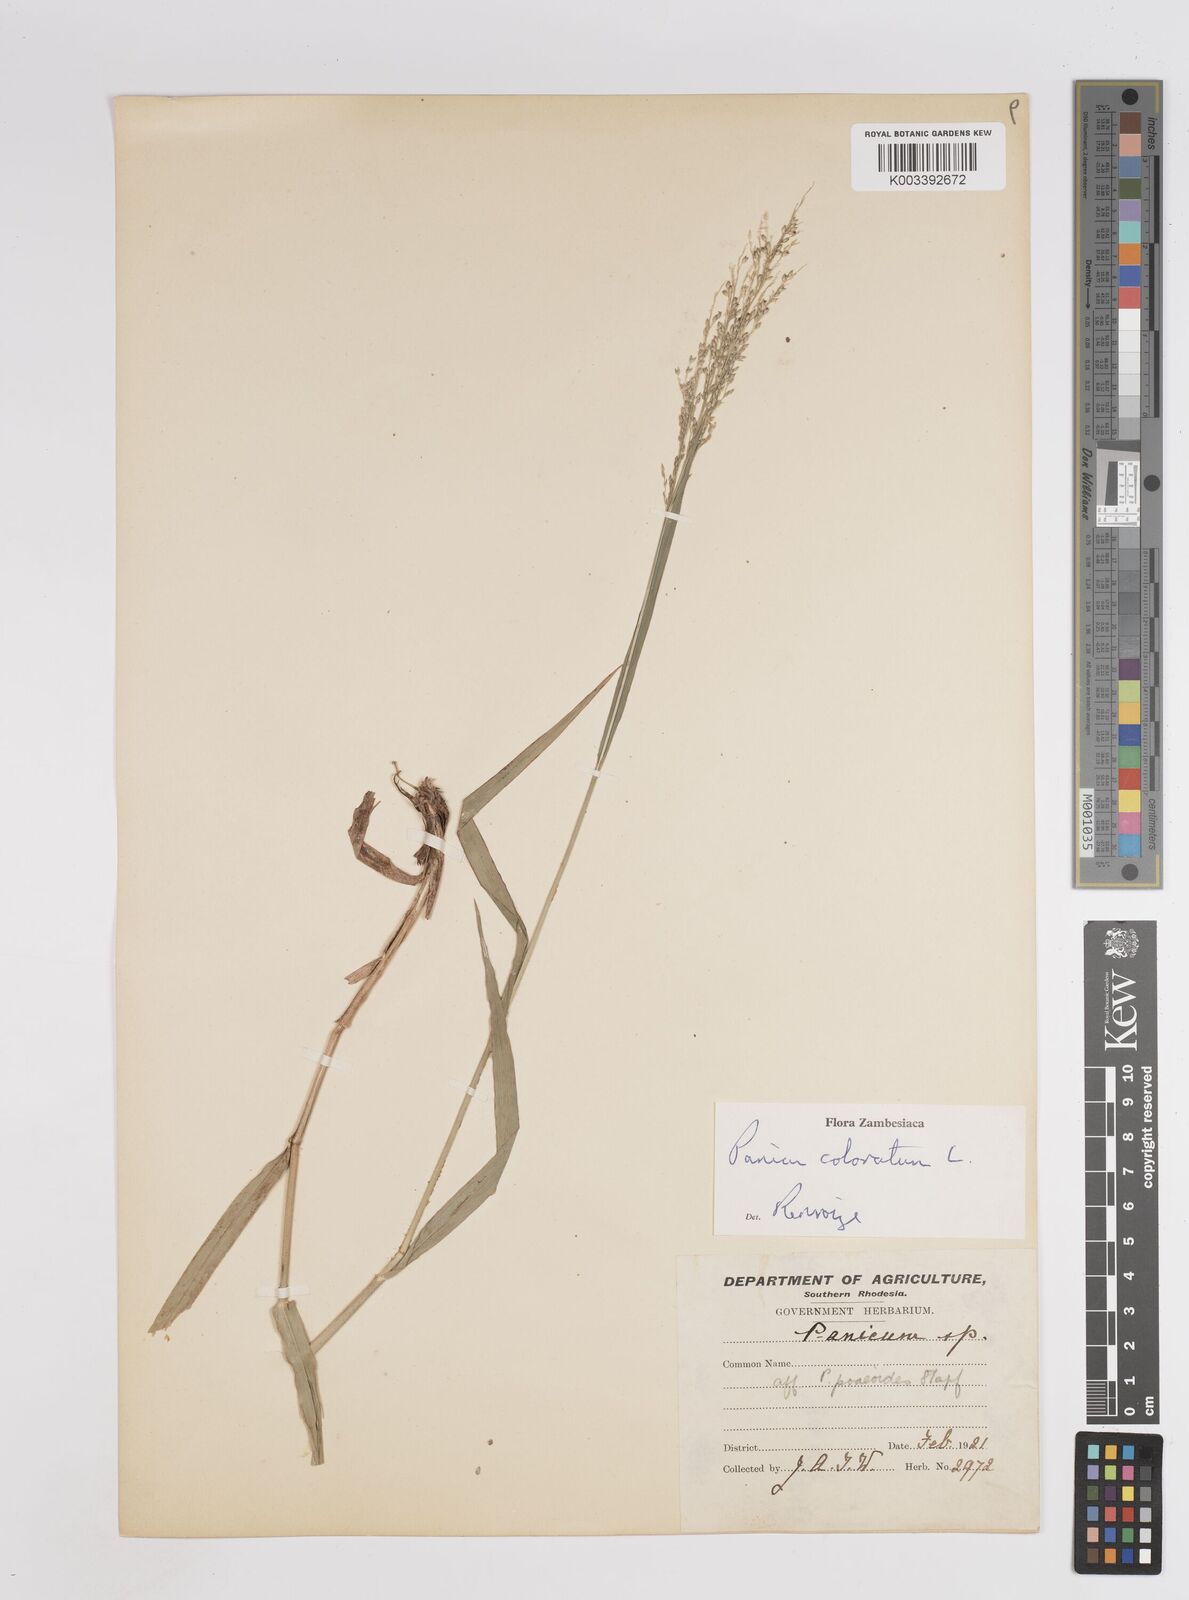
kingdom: Plantae
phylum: Tracheophyta
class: Liliopsida
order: Poales
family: Poaceae
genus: Panicum
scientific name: Panicum coloratum
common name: Kleingrass
